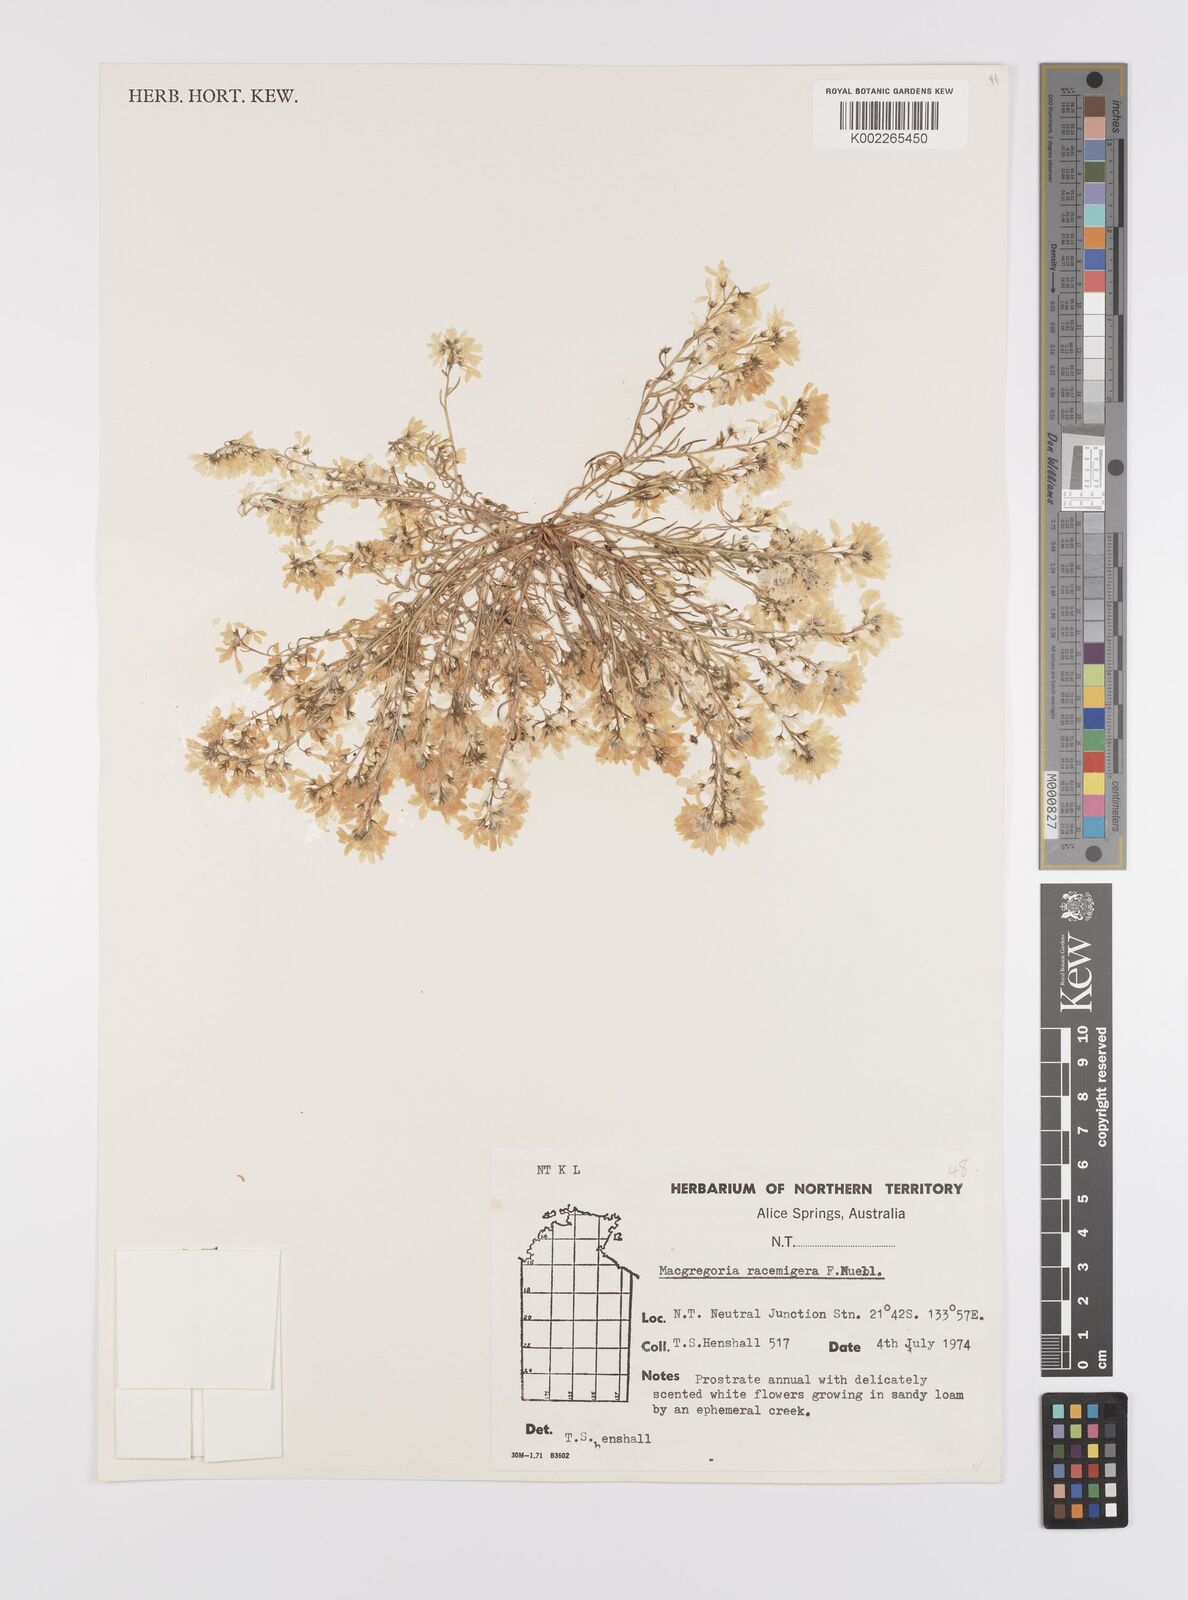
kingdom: Plantae
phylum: Tracheophyta
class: Magnoliopsida
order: Celastrales
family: Celastraceae
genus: Macgregoria
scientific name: Macgregoria racemigera
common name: Carpet-of-snow
